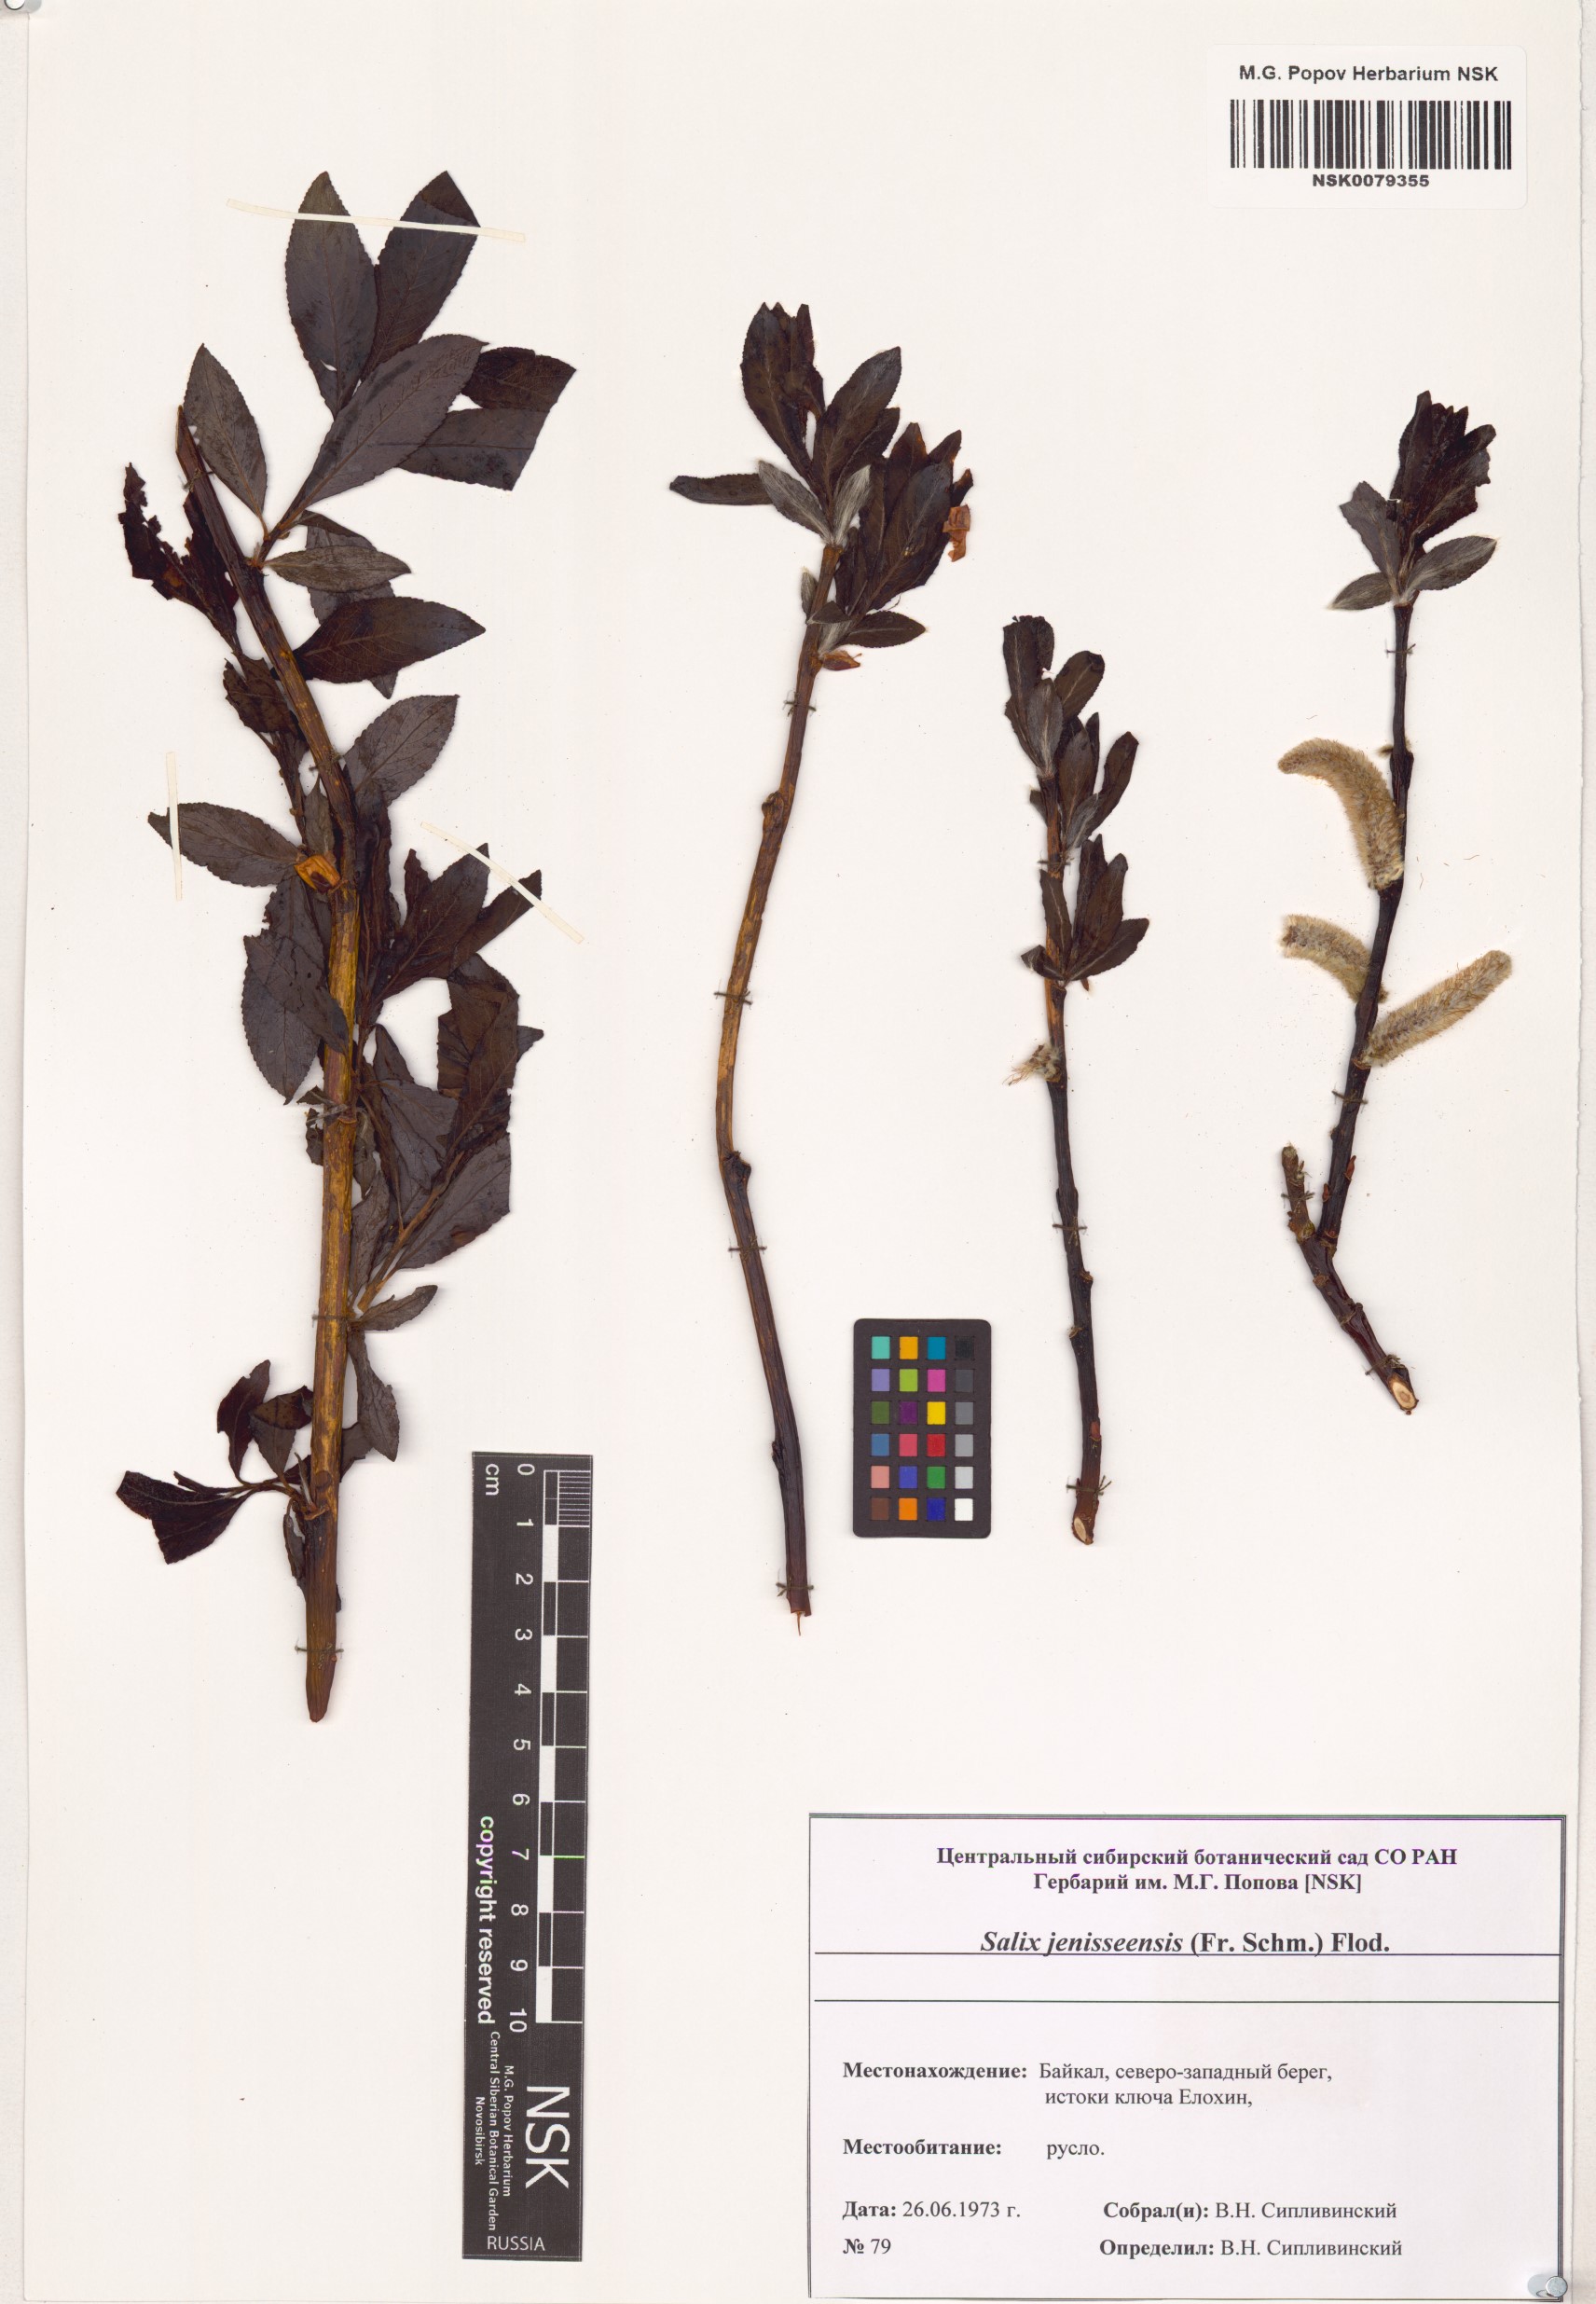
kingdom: Plantae
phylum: Tracheophyta
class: Magnoliopsida
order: Malpighiales
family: Salicaceae
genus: Salix
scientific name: Salix jenisseensis
